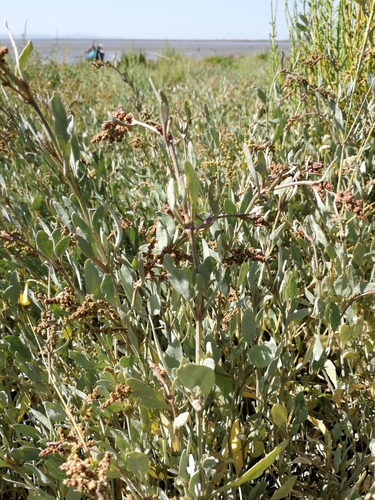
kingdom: Plantae
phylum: Tracheophyta
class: Magnoliopsida
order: Caryophyllales
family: Amaranthaceae
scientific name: Amaranthaceae
